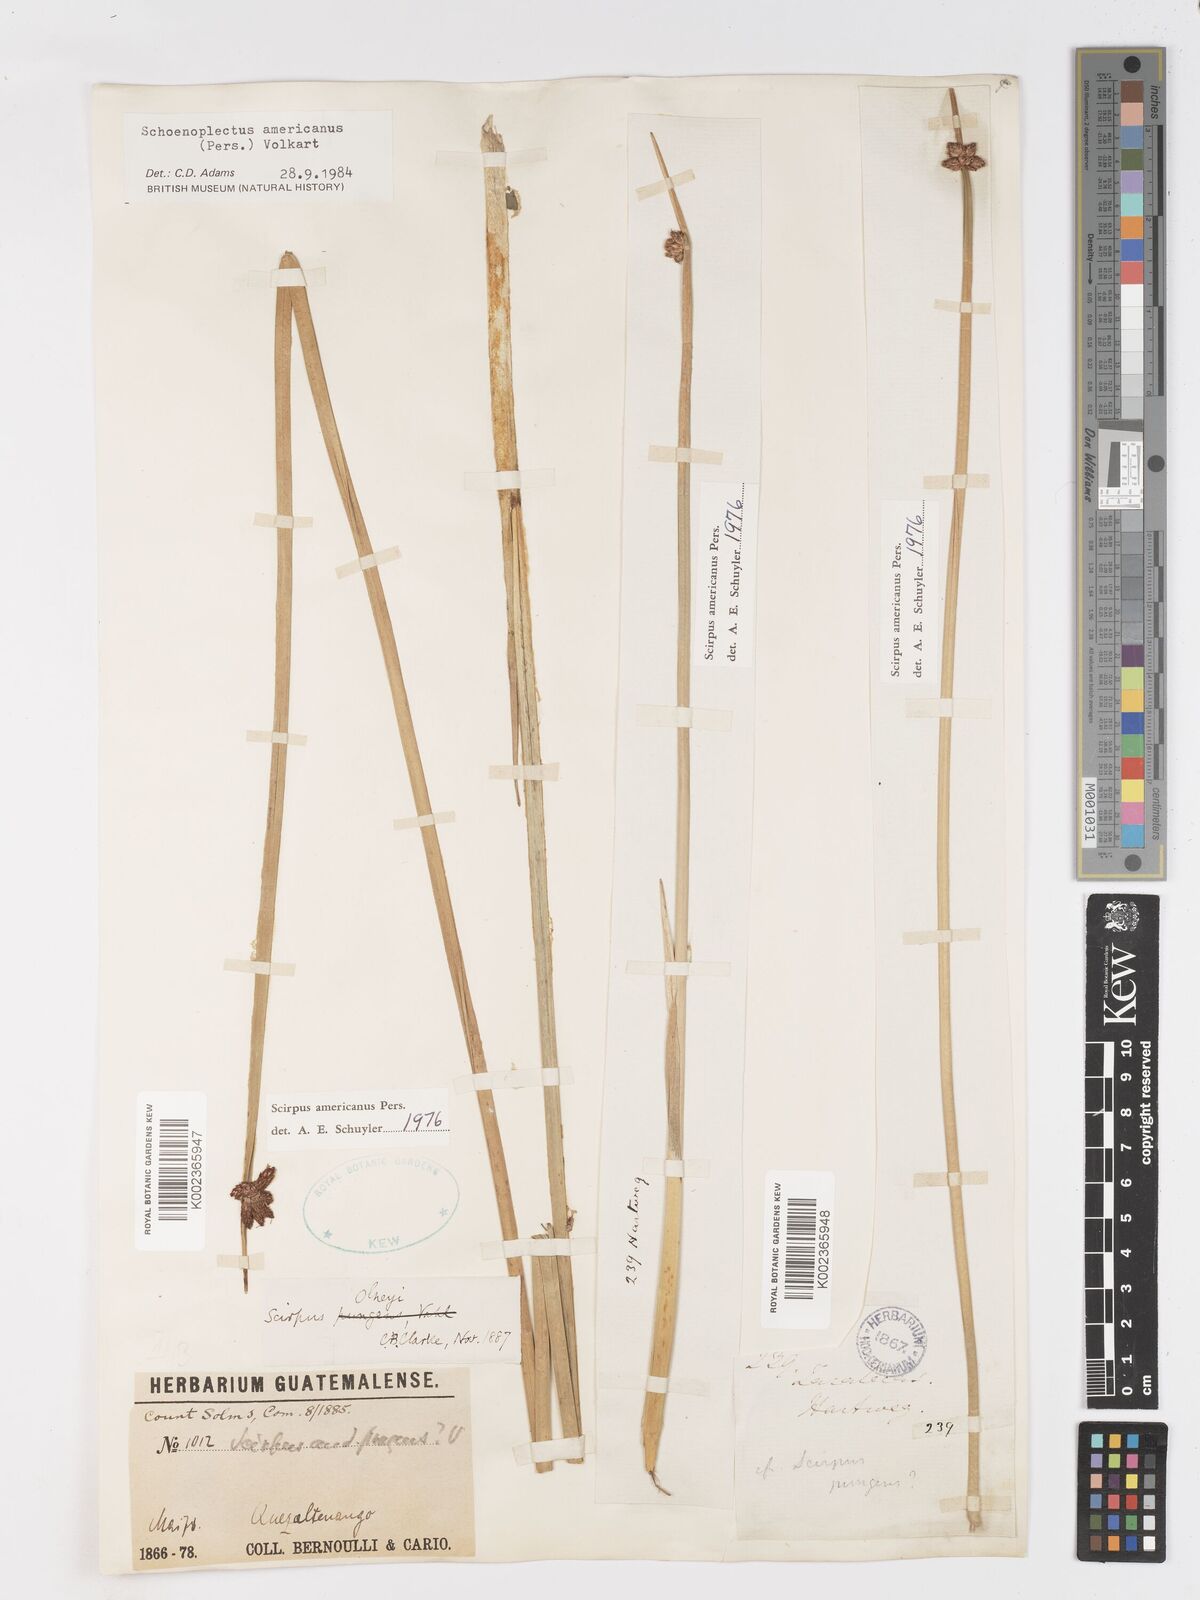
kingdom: Plantae
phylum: Tracheophyta
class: Liliopsida
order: Poales
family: Cyperaceae
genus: Schoenoplectus
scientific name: Schoenoplectus americanus
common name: American three-square bulrush
